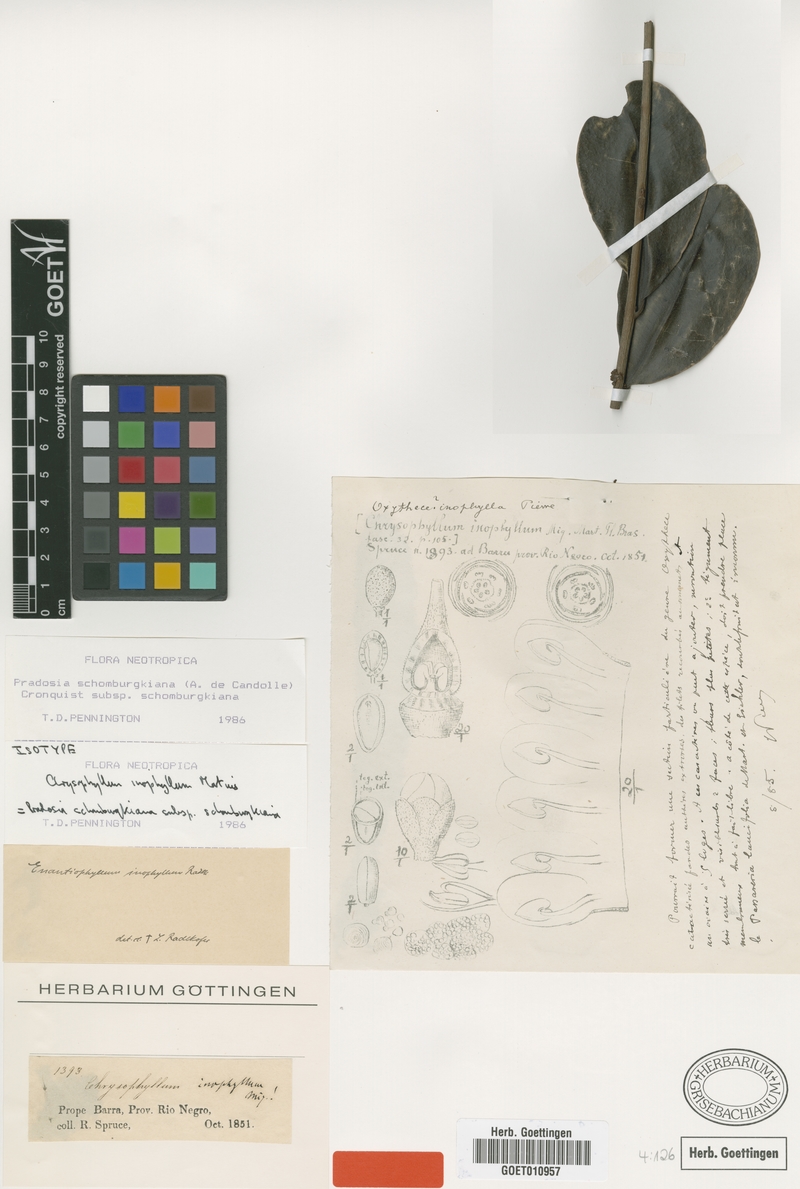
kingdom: Plantae
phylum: Tracheophyta
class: Magnoliopsida
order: Ericales
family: Sapotaceae
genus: Pradosia
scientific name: Pradosia schomburgkiana
